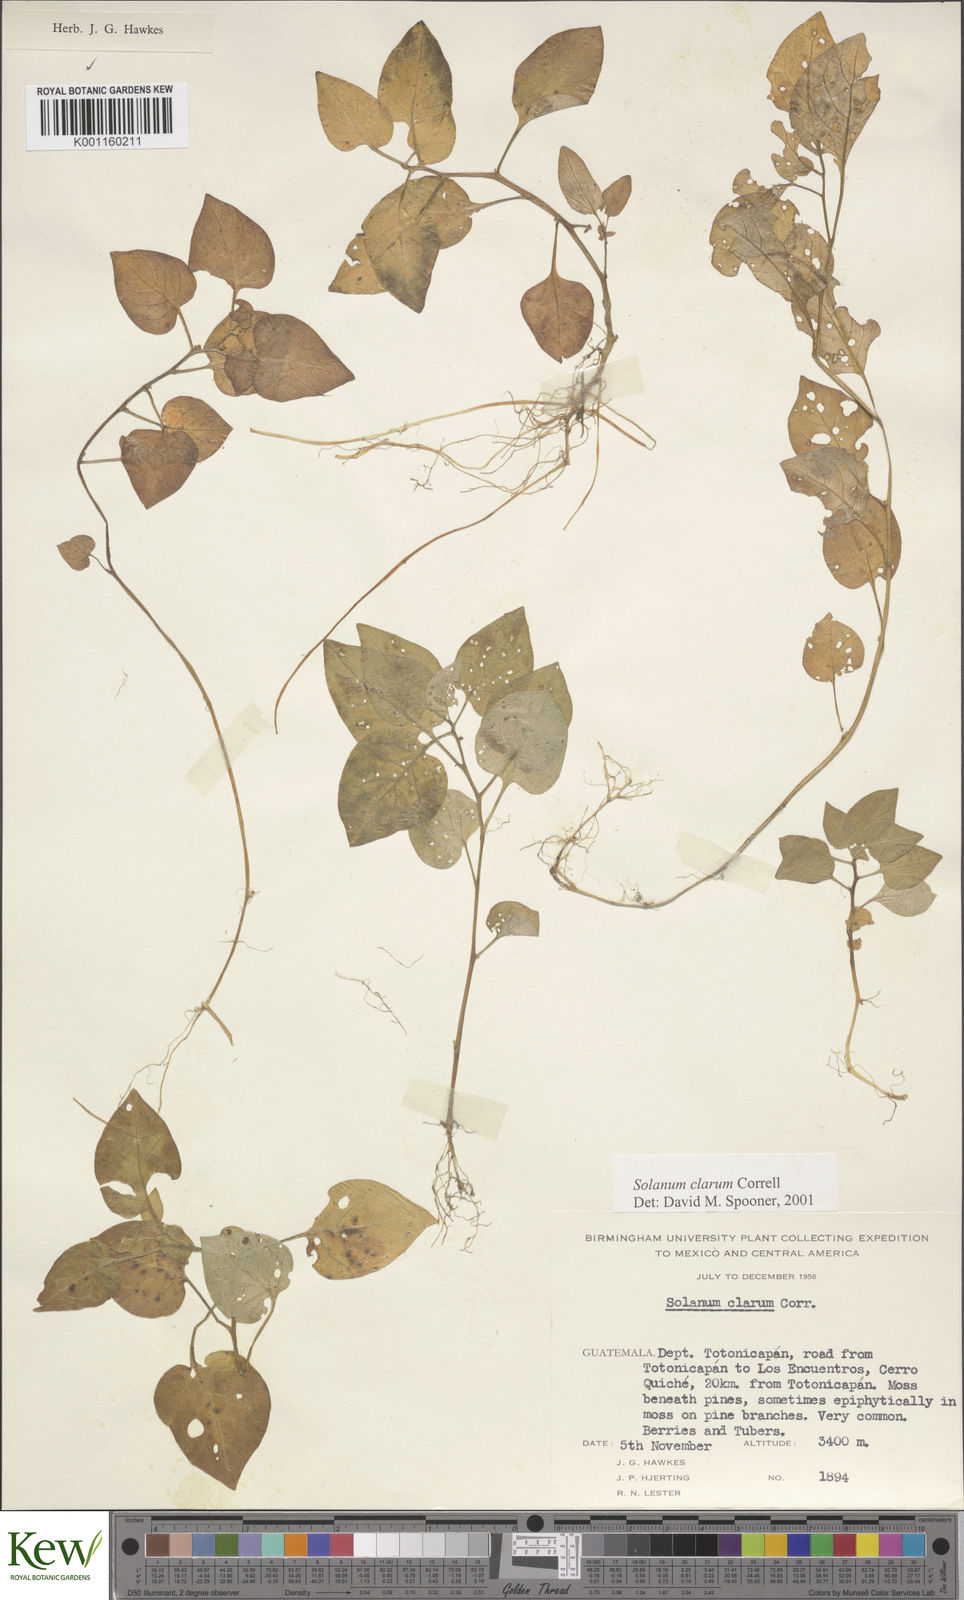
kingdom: Plantae
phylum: Tracheophyta
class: Magnoliopsida
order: Solanales
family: Solanaceae
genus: Solanum
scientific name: Solanum clarum
